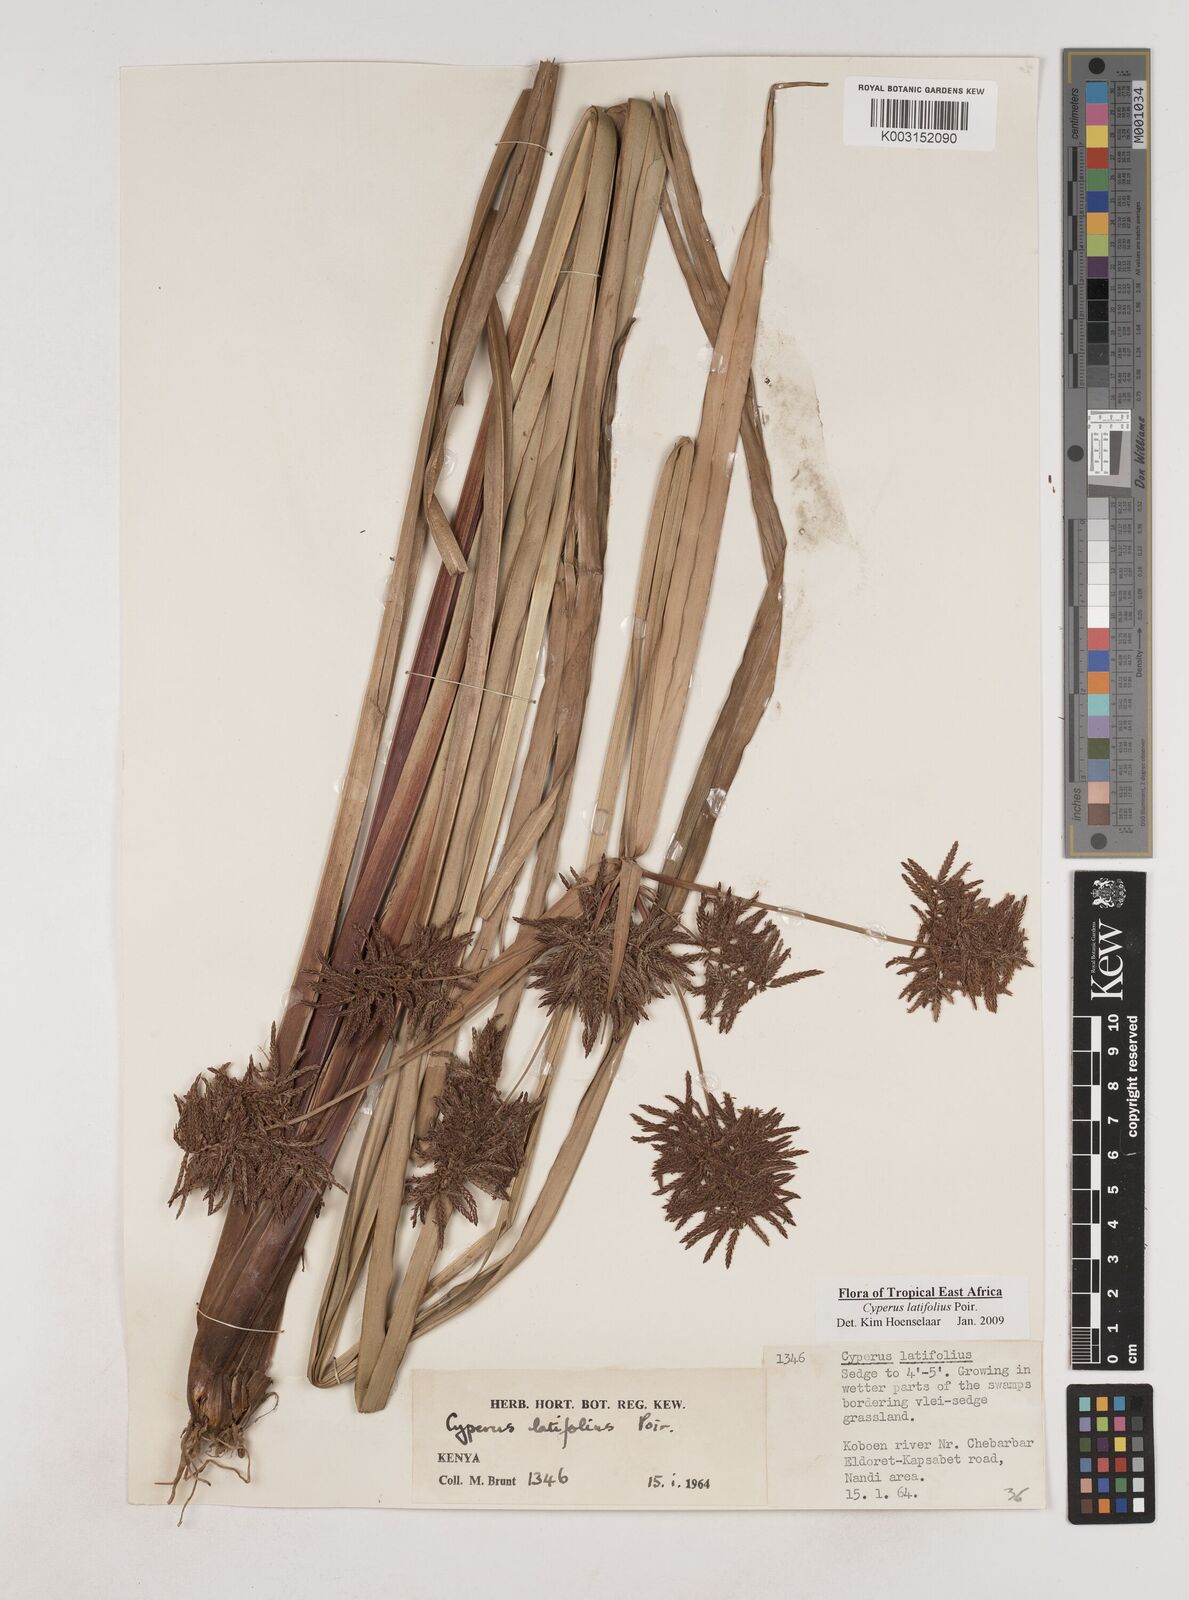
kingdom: Plantae
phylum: Tracheophyta
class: Liliopsida
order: Poales
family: Cyperaceae
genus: Cyperus
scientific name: Cyperus latifolius
